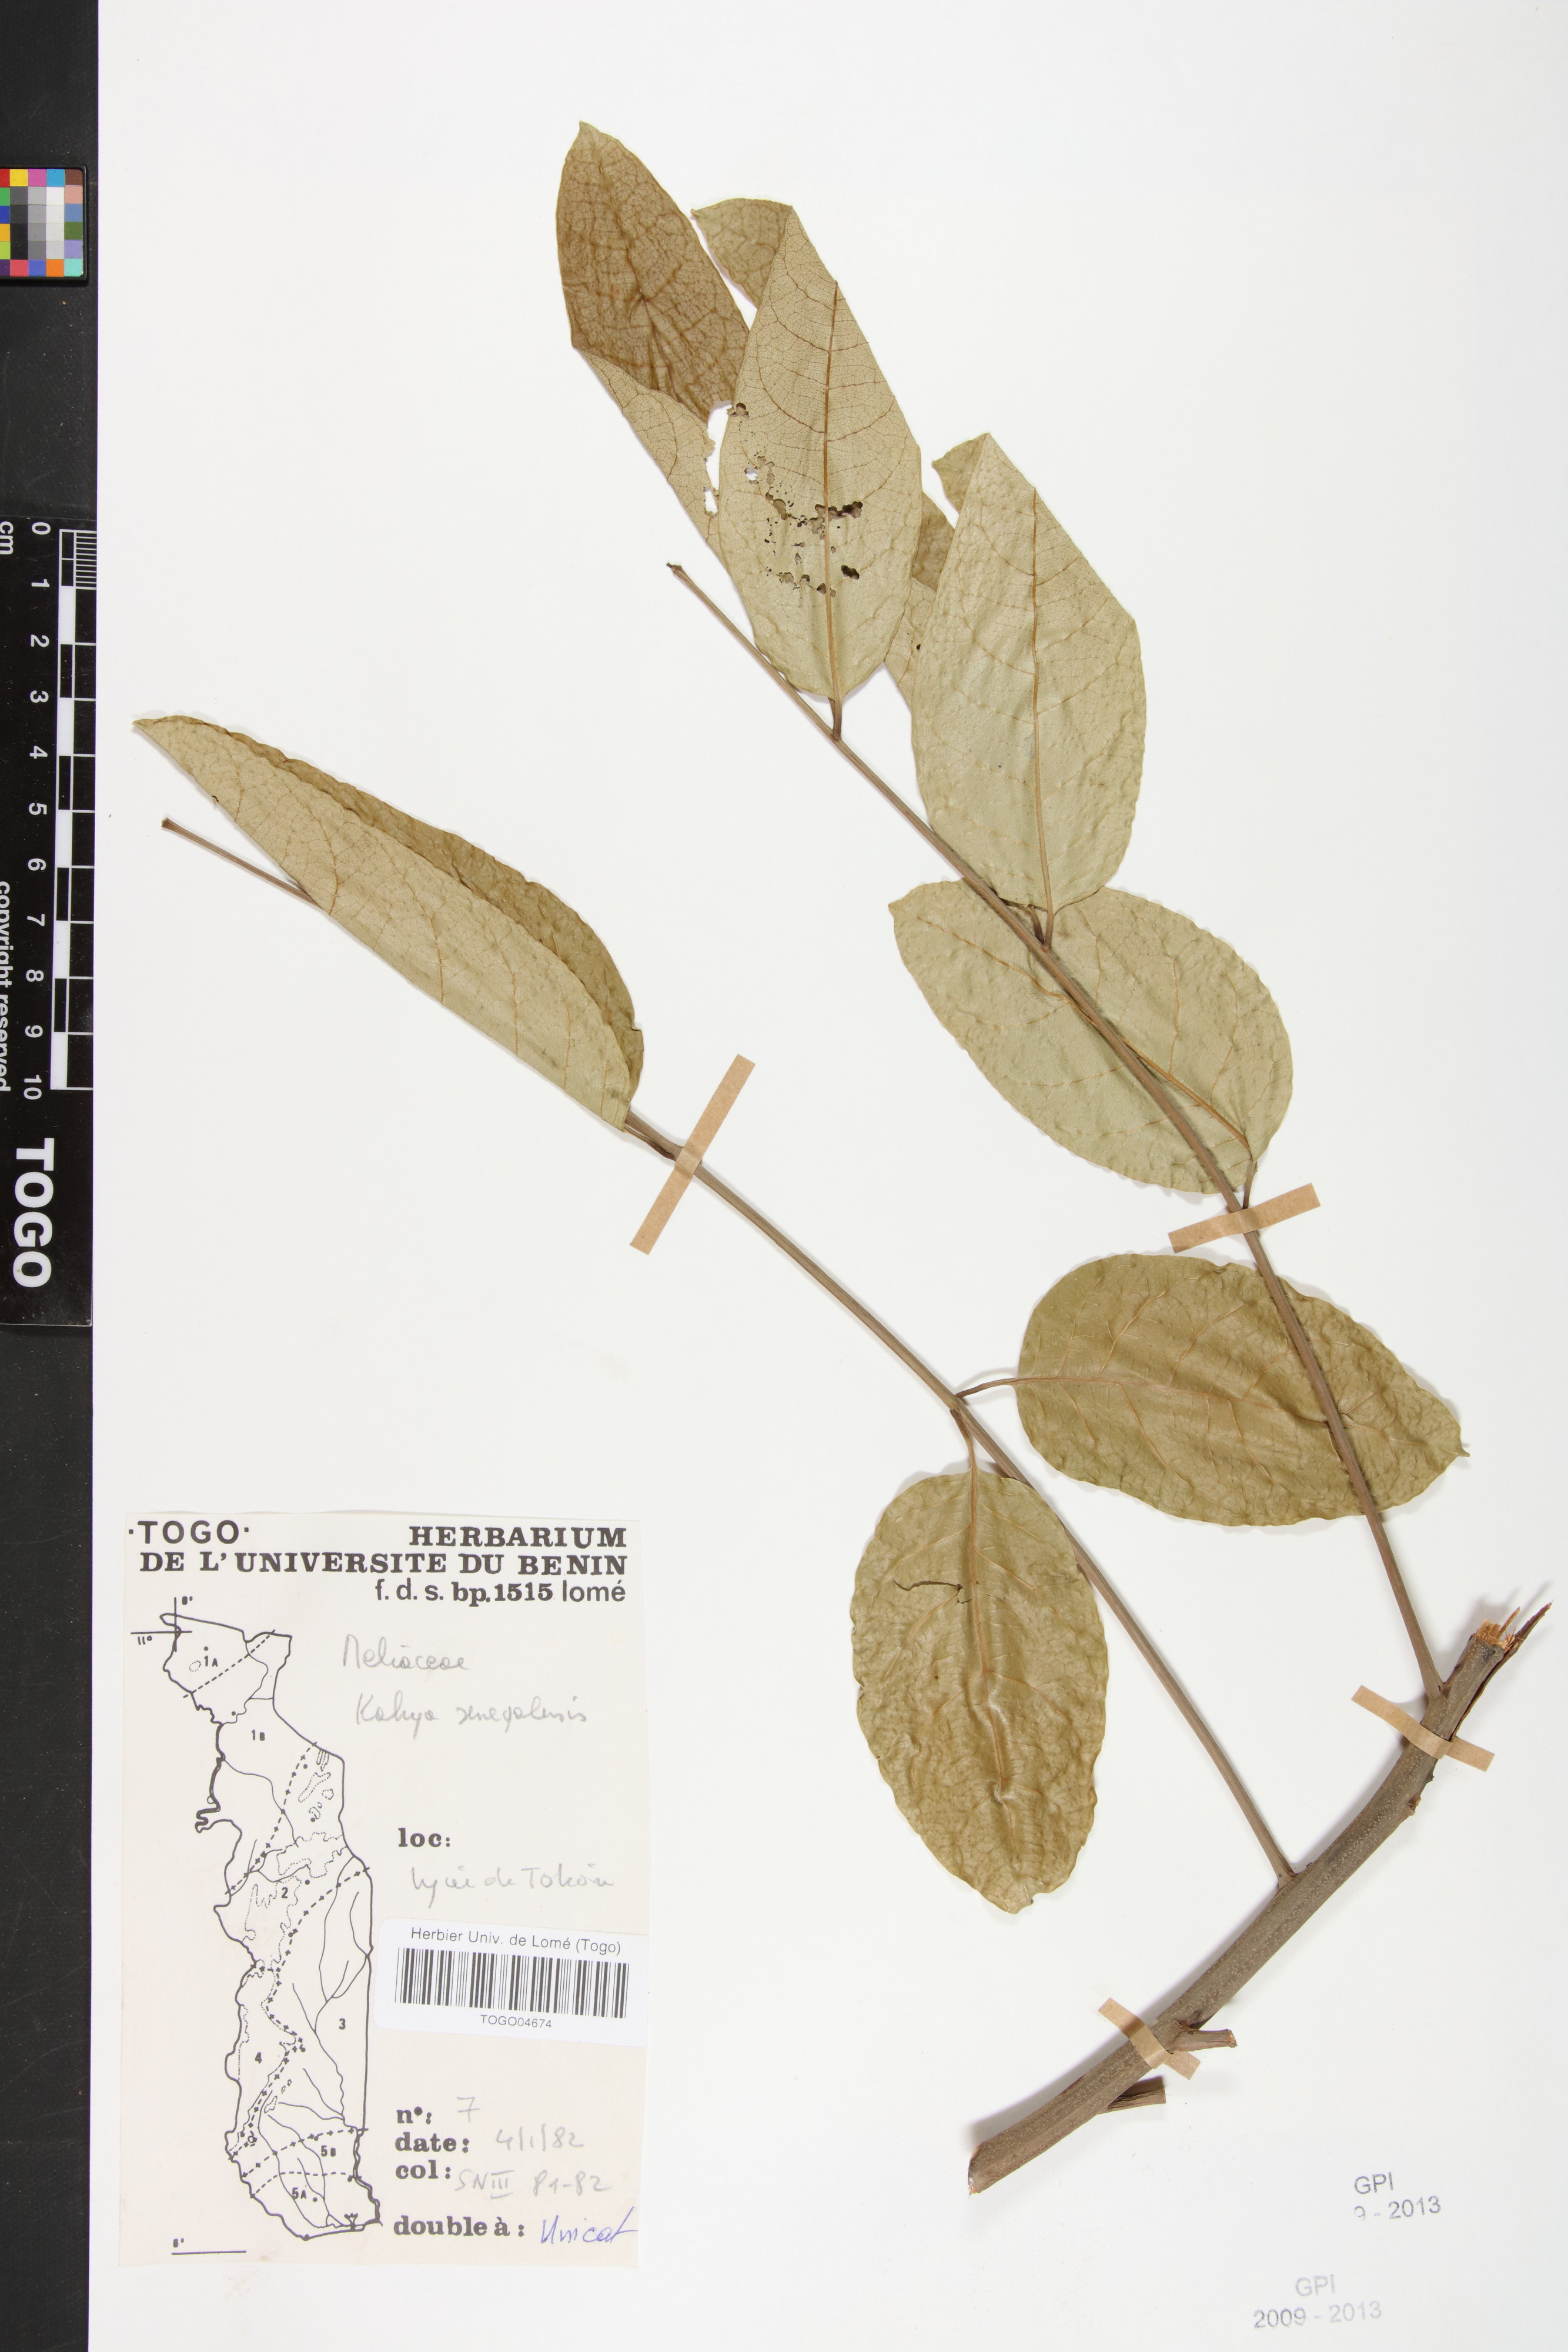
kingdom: Plantae
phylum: Tracheophyta
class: Magnoliopsida
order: Sapindales
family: Meliaceae
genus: Khaya
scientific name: Khaya senegalensis
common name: Senegal mahogany
